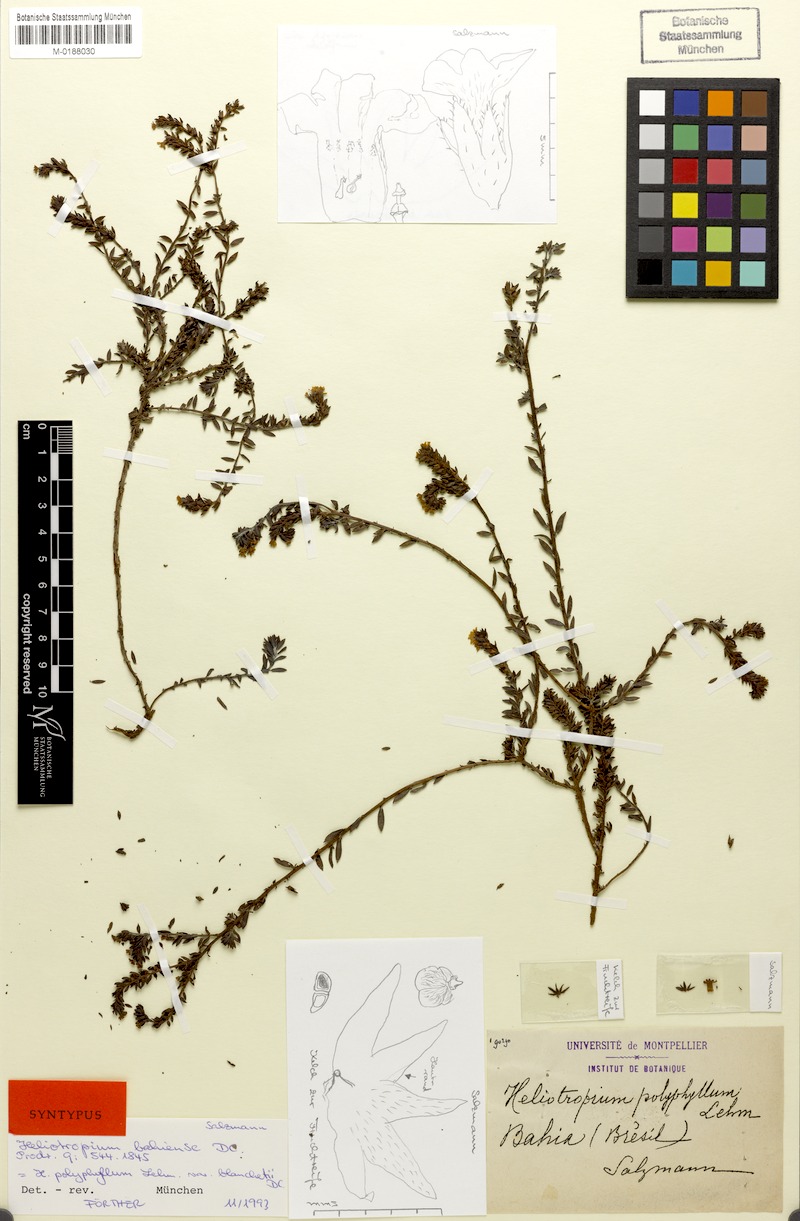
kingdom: Plantae
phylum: Tracheophyta
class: Magnoliopsida
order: Boraginales
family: Heliotropiaceae
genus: Euploca
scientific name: Euploca polyphylla
